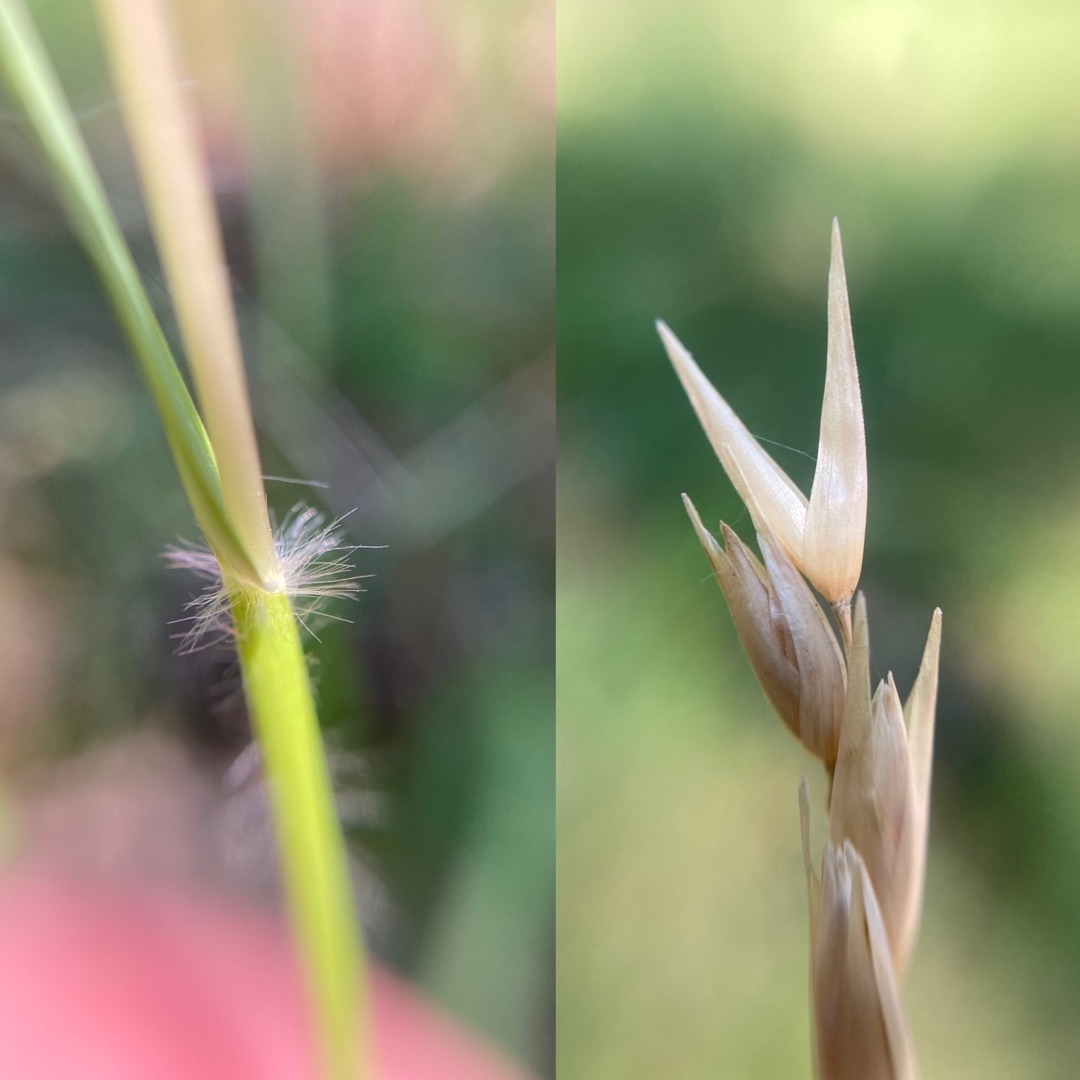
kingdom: Plantae
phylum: Tracheophyta
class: Liliopsida
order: Poales
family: Poaceae
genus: Danthonia
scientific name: Danthonia decumbens
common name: Tandbælg
